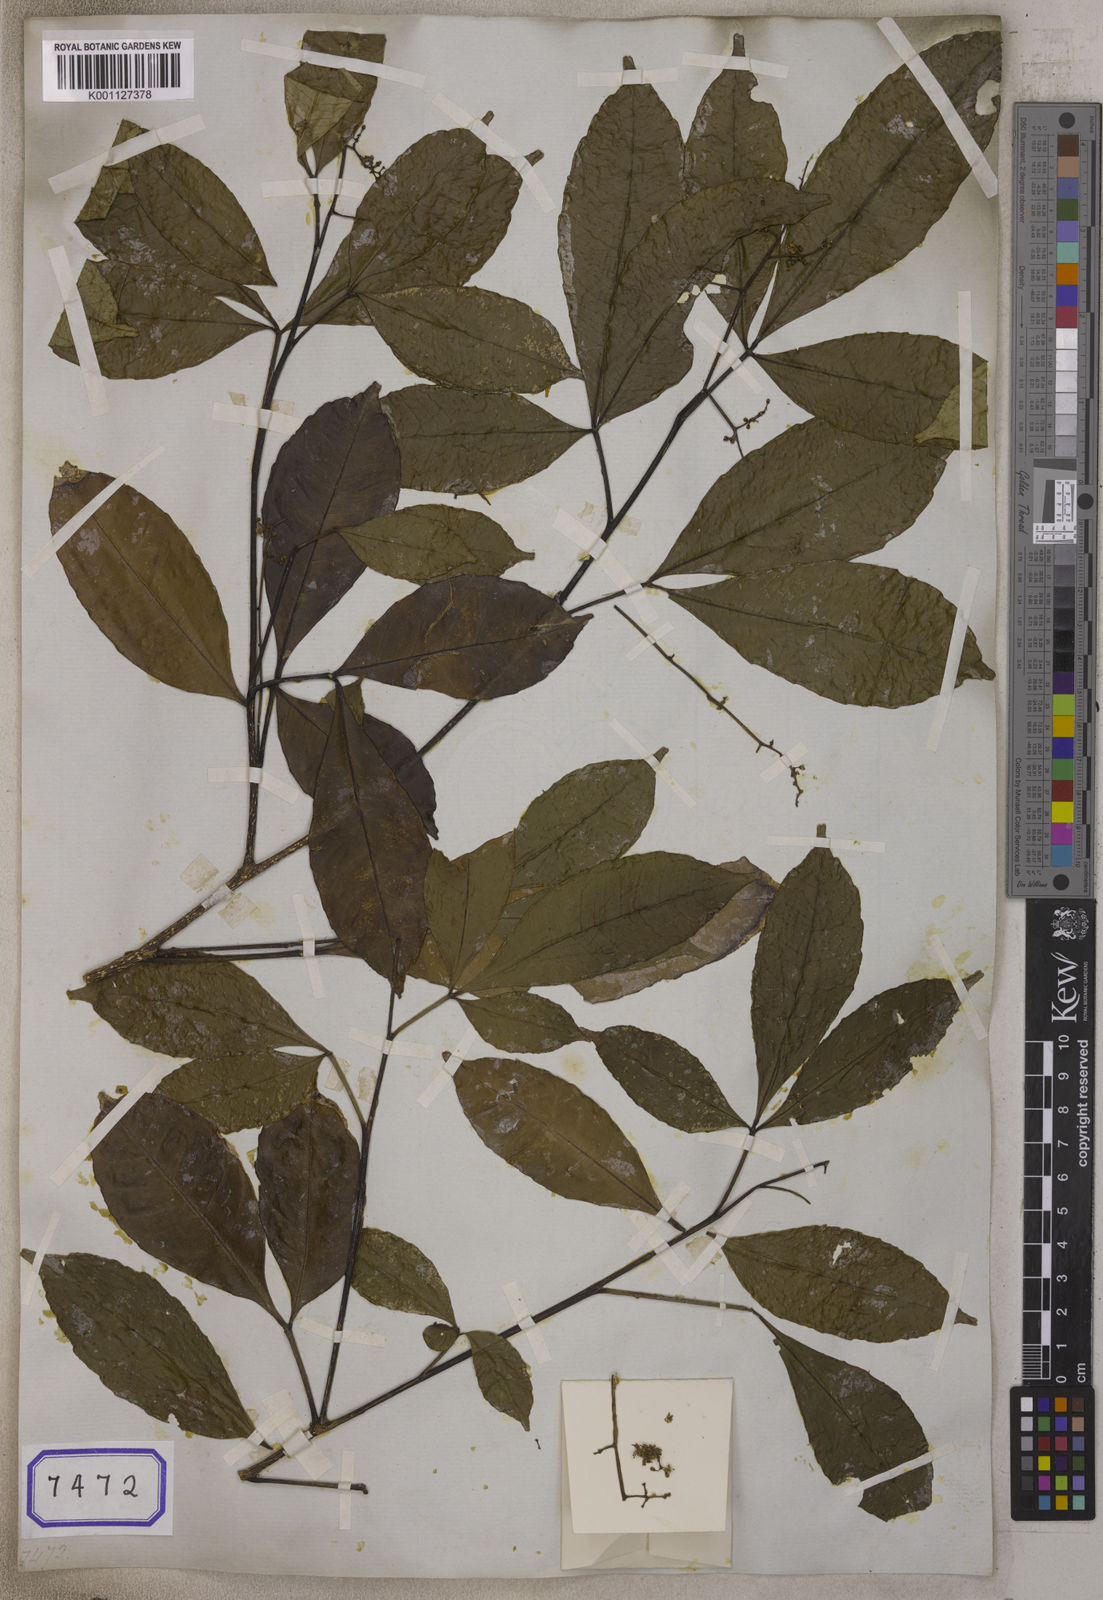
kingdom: Plantae
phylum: Tracheophyta
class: Magnoliopsida
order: Sapindales
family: Rutaceae
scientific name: Rutaceae
